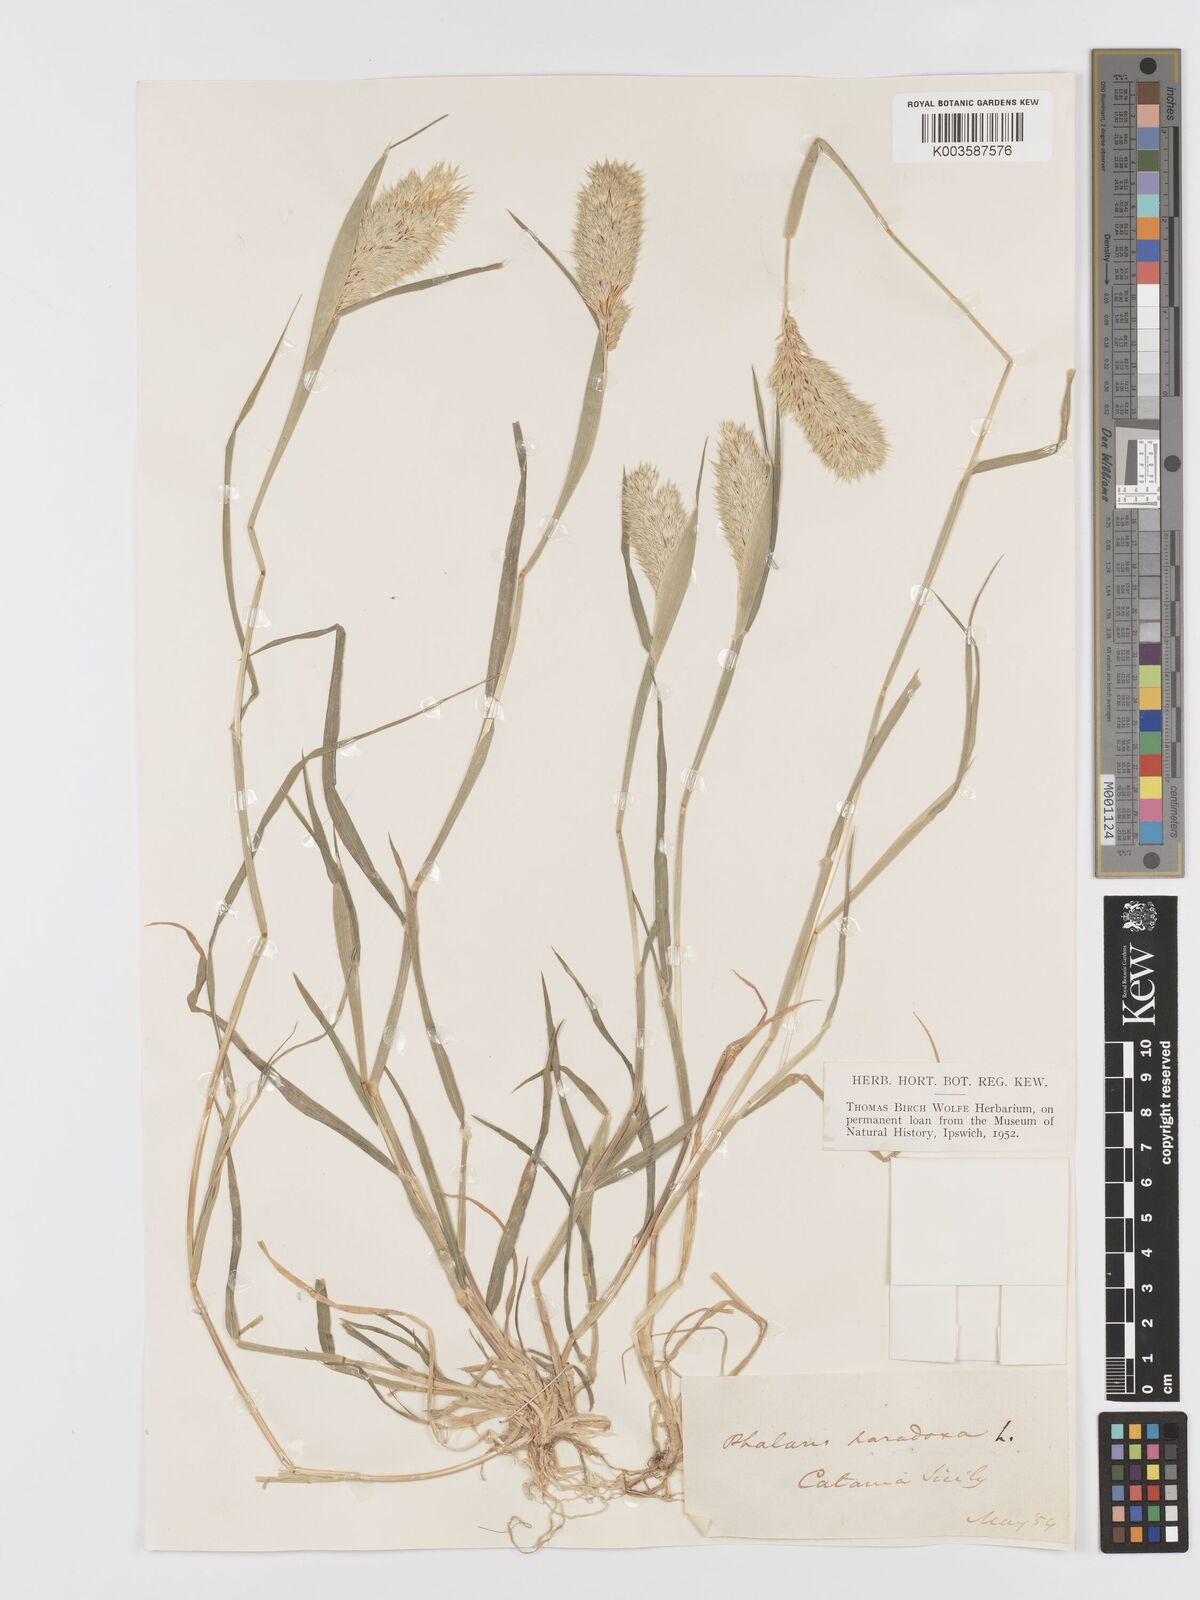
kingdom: Plantae
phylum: Tracheophyta
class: Liliopsida
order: Poales
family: Poaceae
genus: Phalaris
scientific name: Phalaris paradoxa
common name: Awned canary-grass
